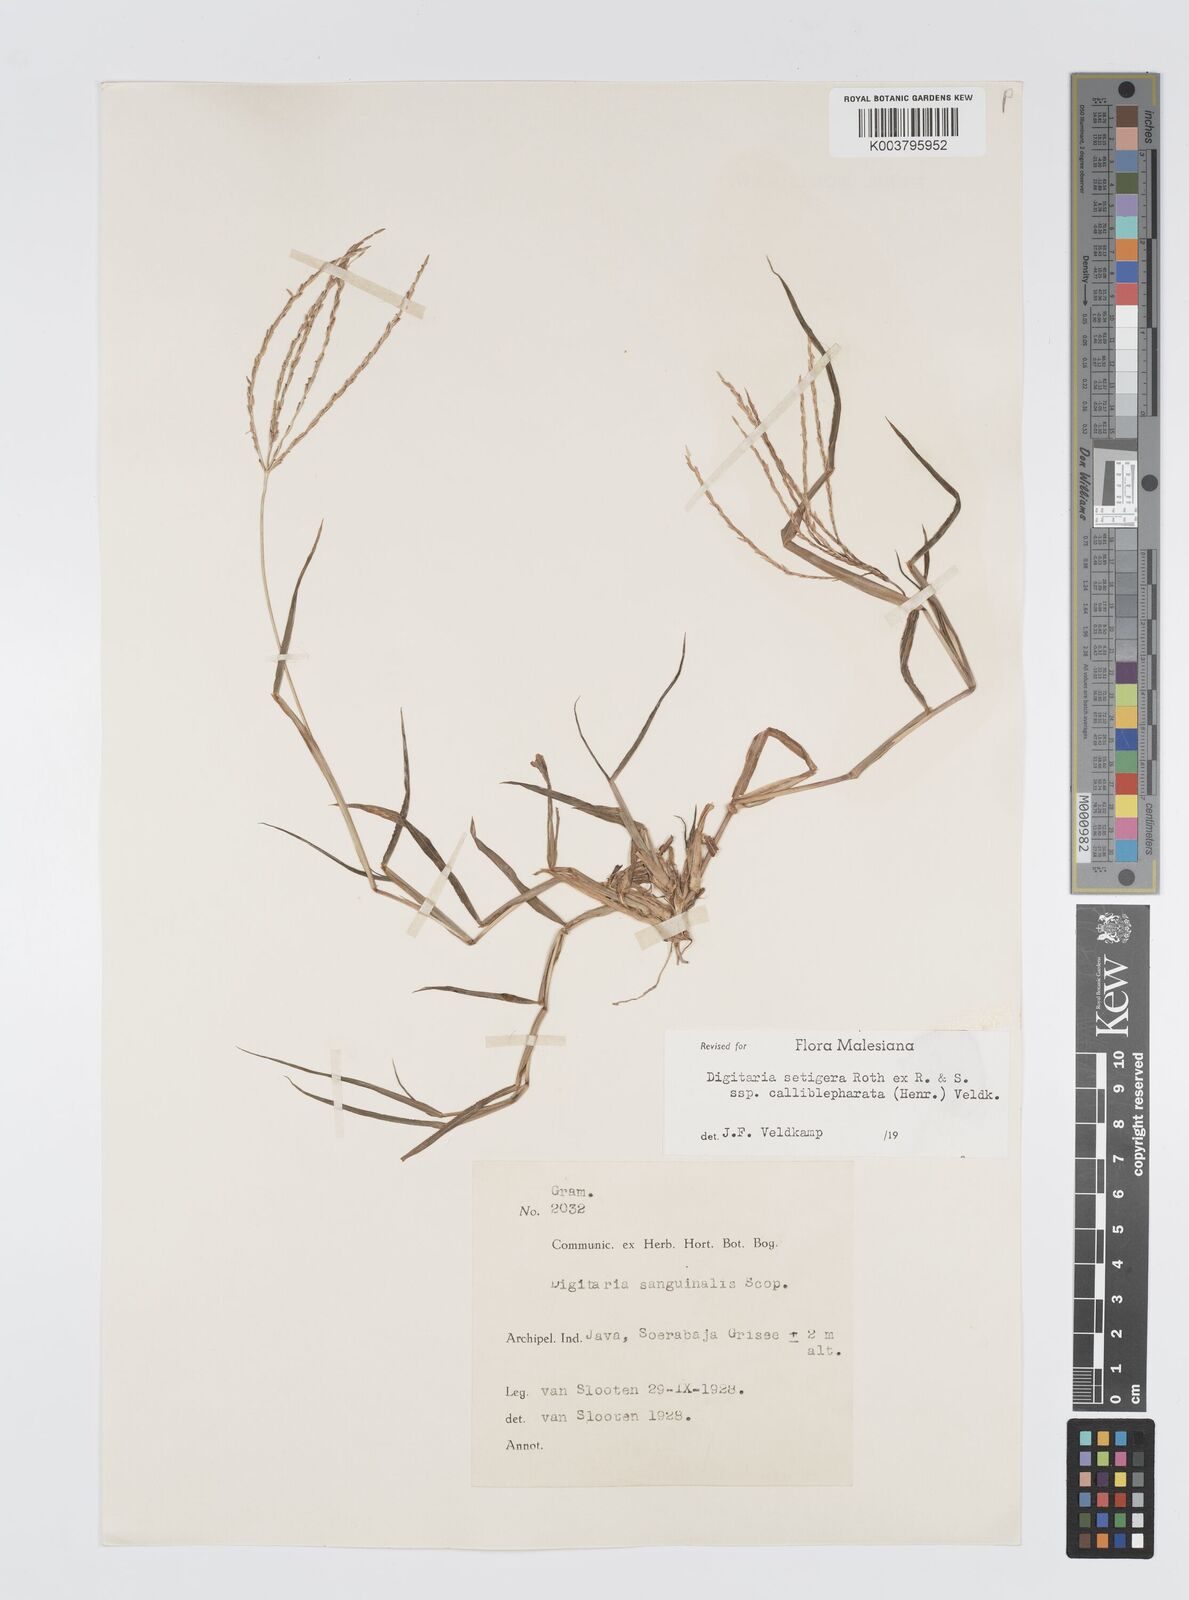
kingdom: Plantae
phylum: Tracheophyta
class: Liliopsida
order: Poales
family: Poaceae
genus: Digitaria
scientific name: Digitaria setigera
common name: East indian crabgrass
